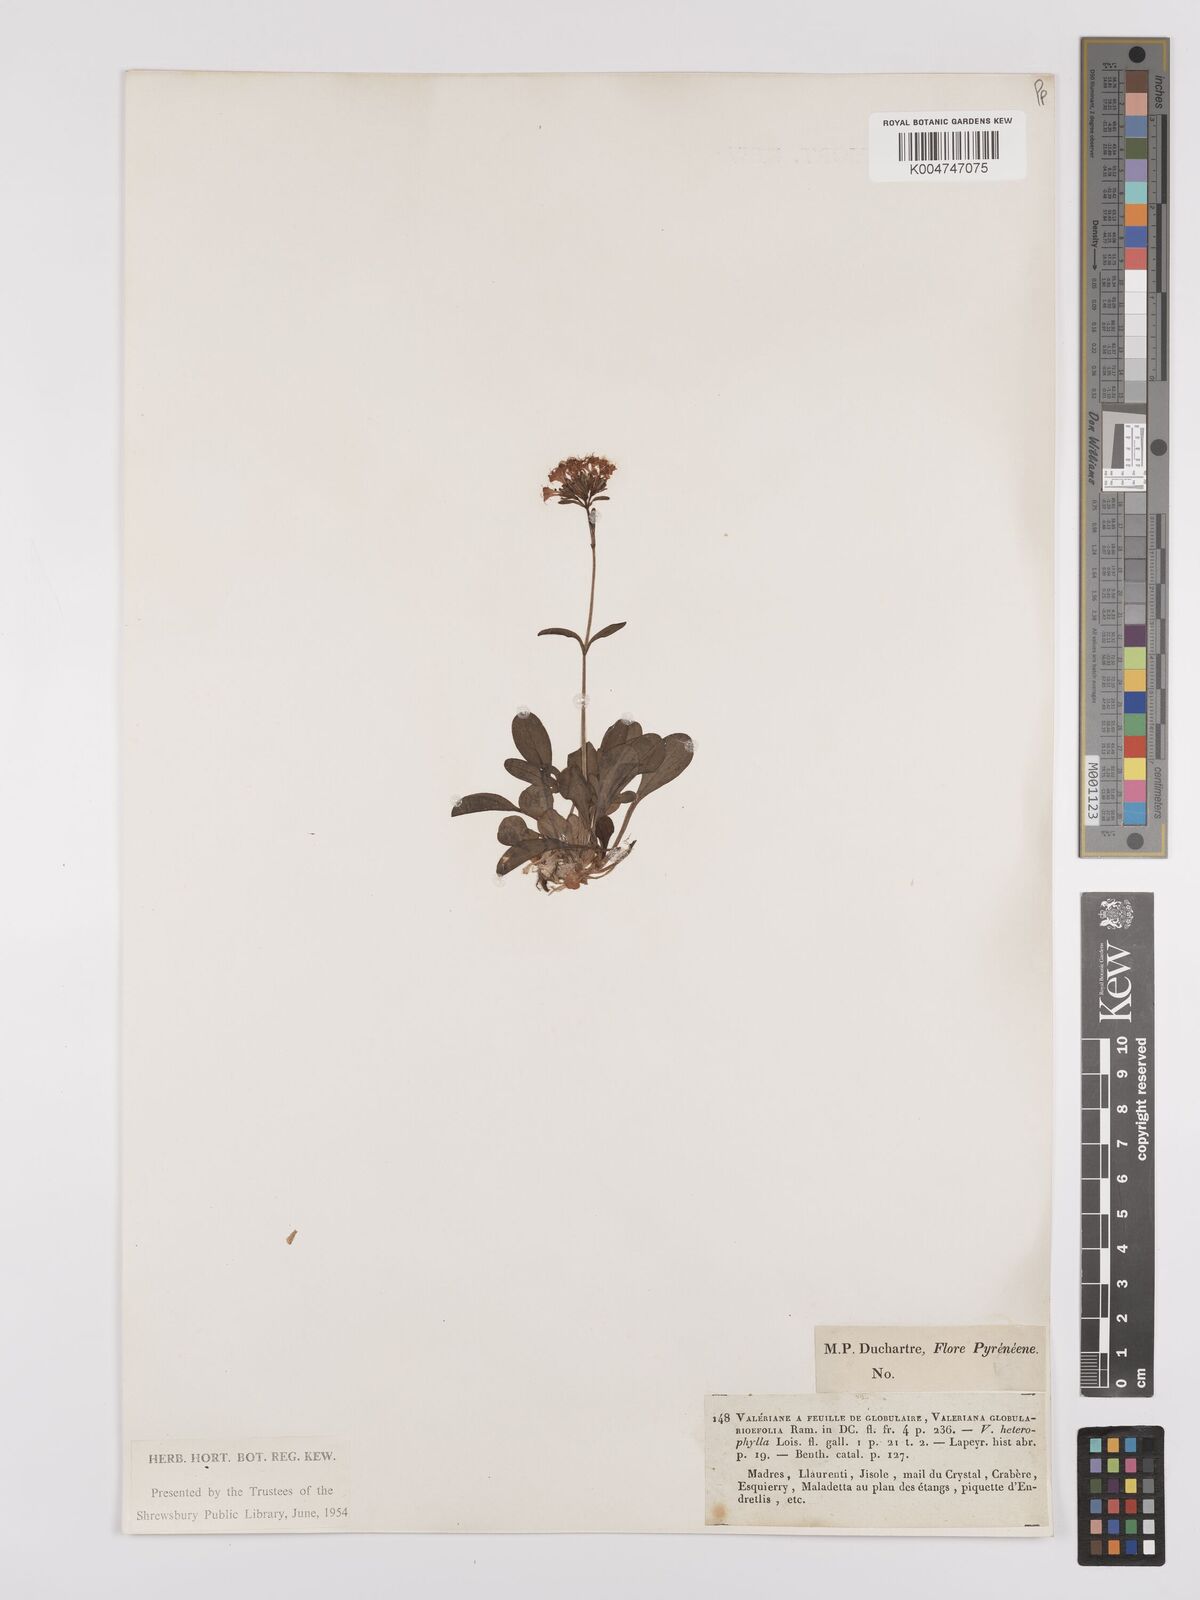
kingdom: Plantae
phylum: Tracheophyta
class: Magnoliopsida
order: Dipsacales
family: Caprifoliaceae
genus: Valeriana
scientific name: Valeriana apula
